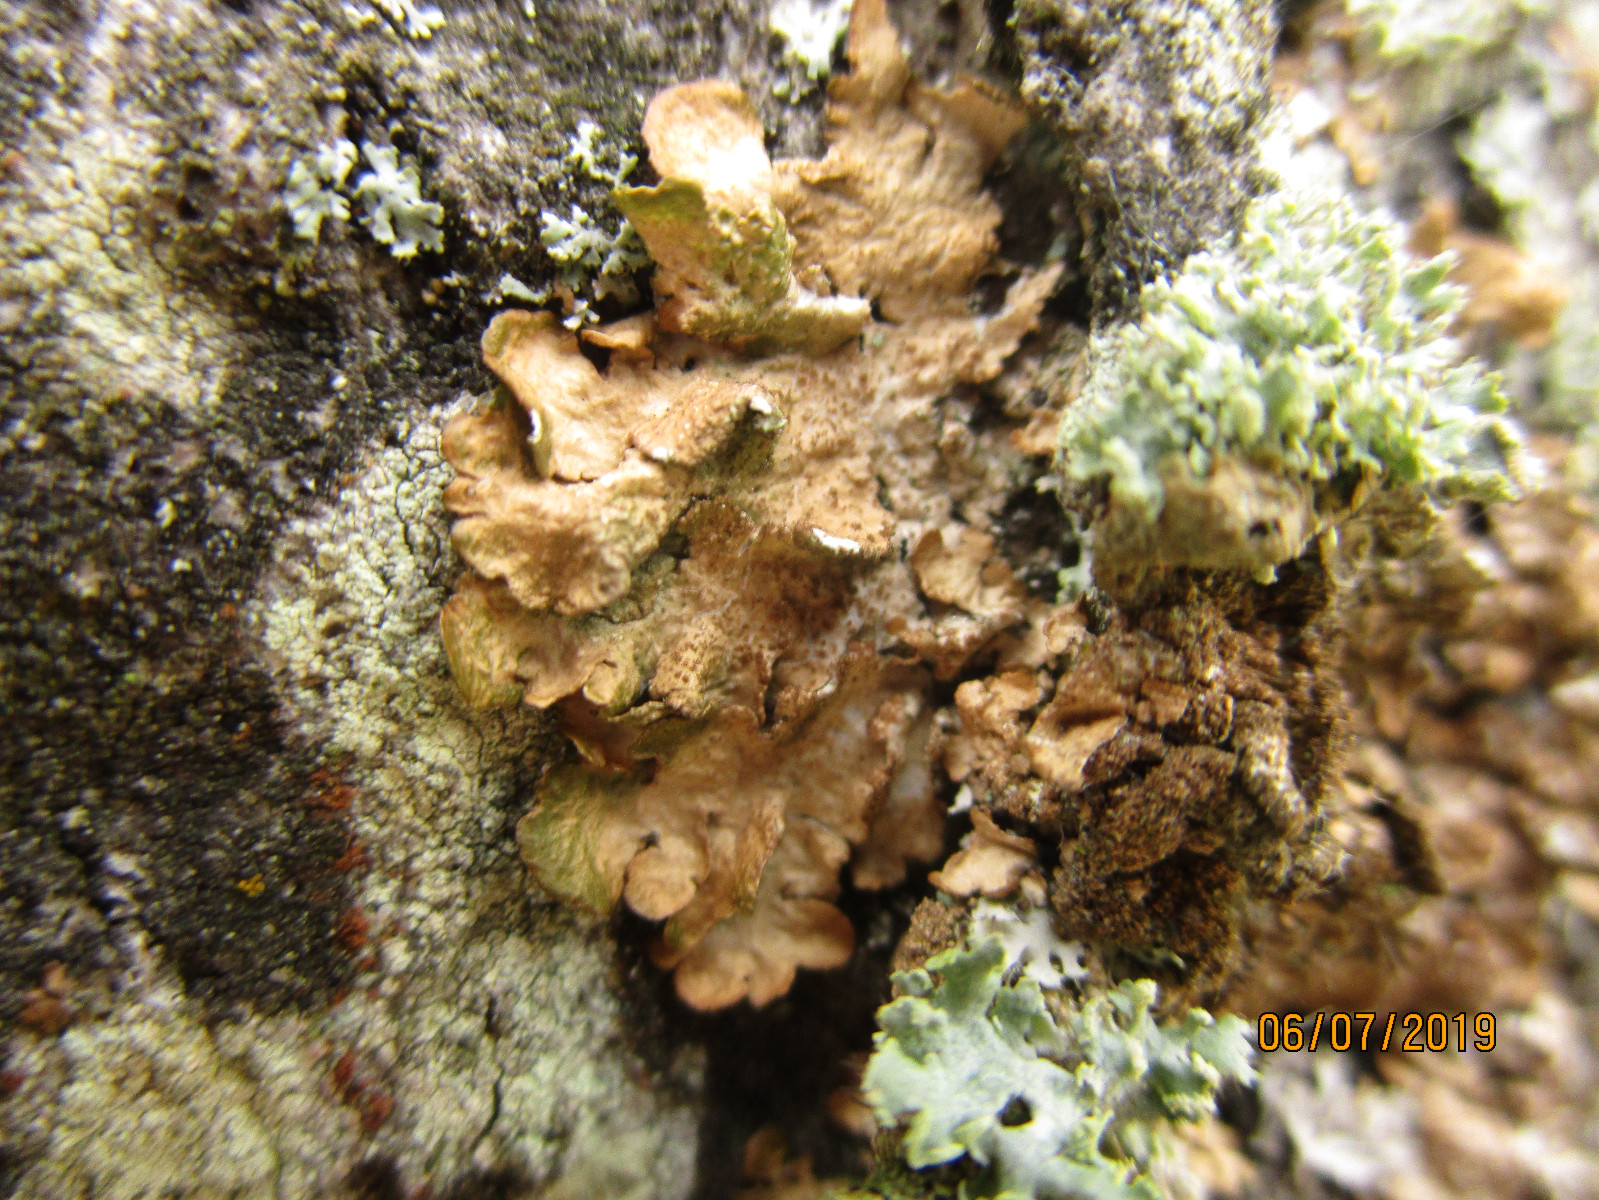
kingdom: Fungi
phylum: Ascomycota
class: Lecanoromycetes
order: Lecanorales
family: Parmeliaceae
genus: Melanelixia
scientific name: Melanelixia subaurifera
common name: guldpudret skållav
